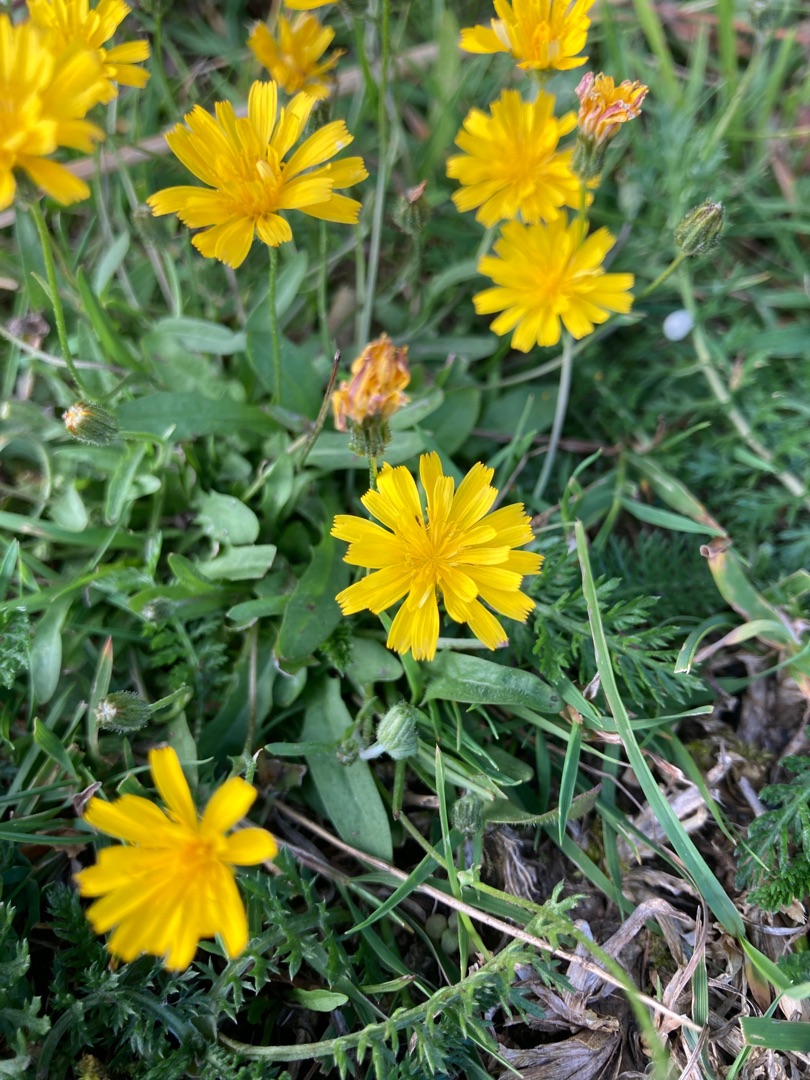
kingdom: Plantae
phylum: Tracheophyta
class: Magnoliopsida
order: Asterales
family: Asteraceae
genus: Crepis
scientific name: Crepis capillaris
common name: Grøn høgeskæg
